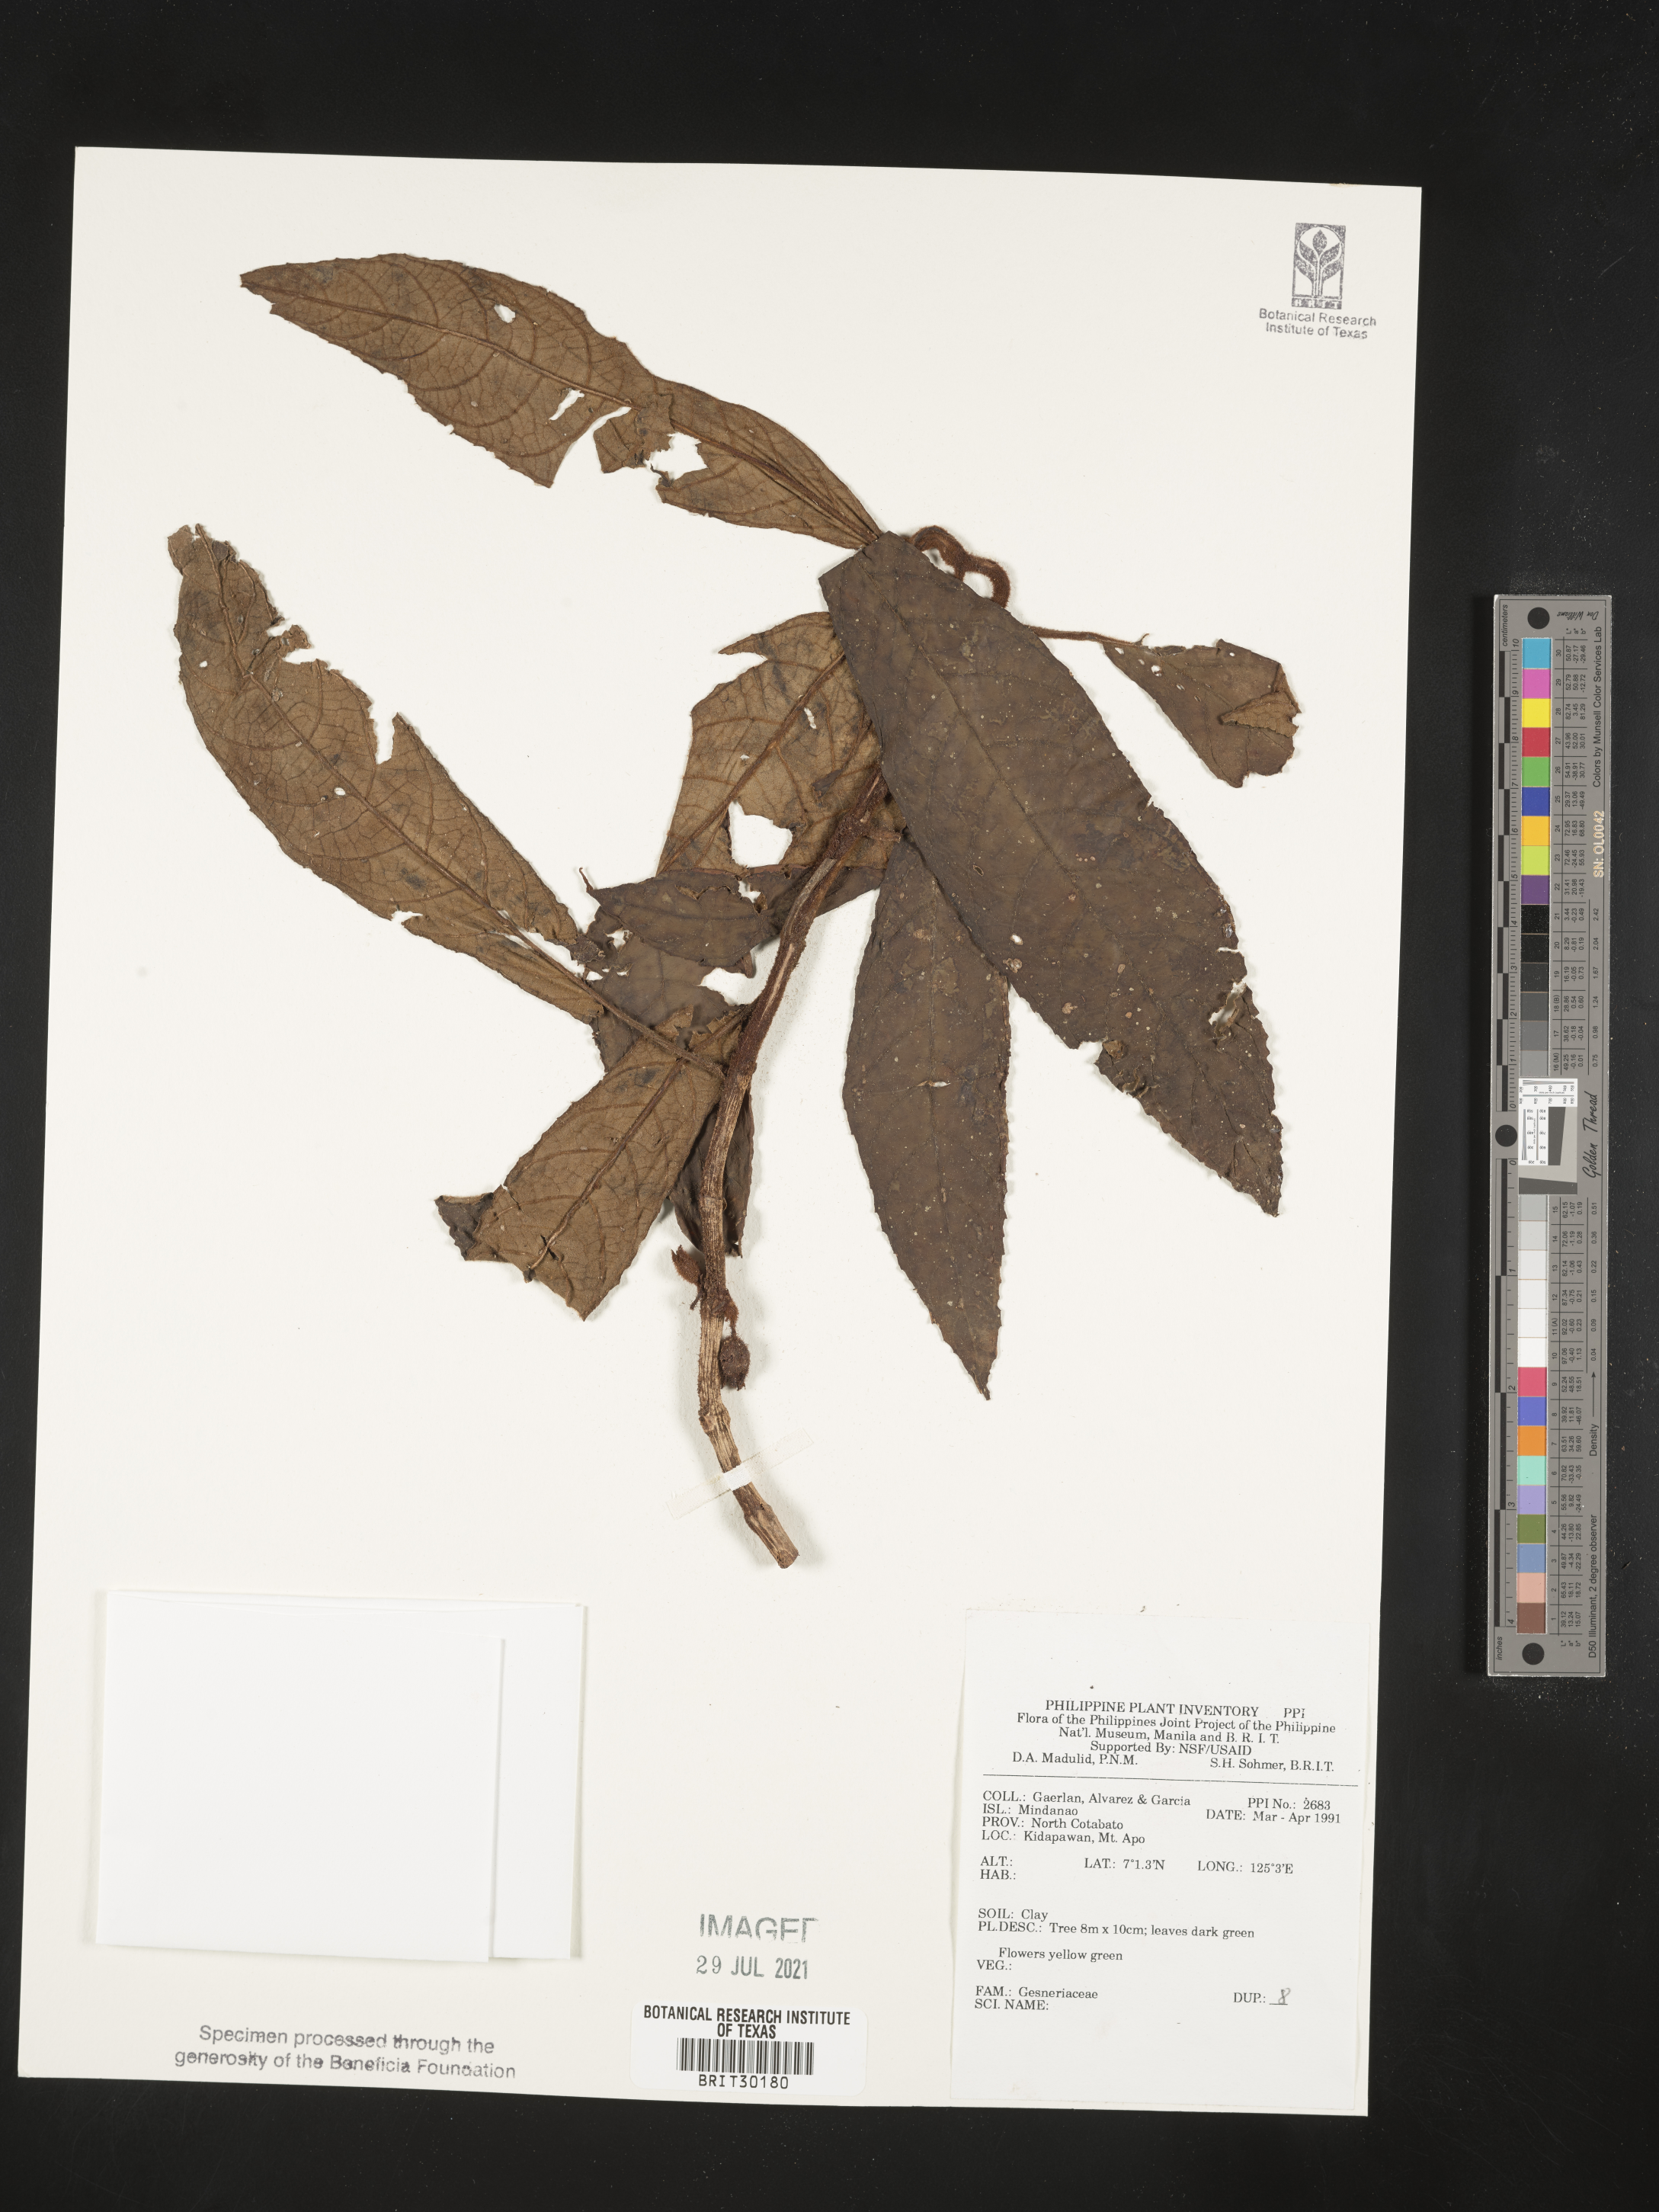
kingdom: Plantae
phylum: Tracheophyta
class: Magnoliopsida
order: Lamiales
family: Gesneriaceae
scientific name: Gesneriaceae
